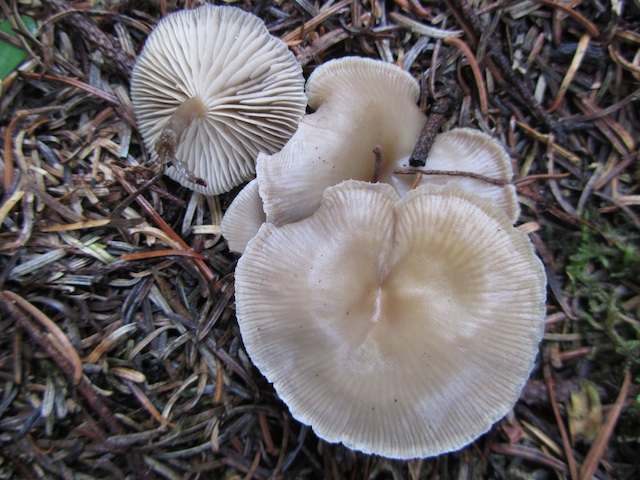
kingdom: Fungi
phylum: Basidiomycota
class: Agaricomycetes
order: Agaricales
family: Tricholomataceae
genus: Clitocybe
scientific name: Clitocybe vibecina
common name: randstribet tragthat
